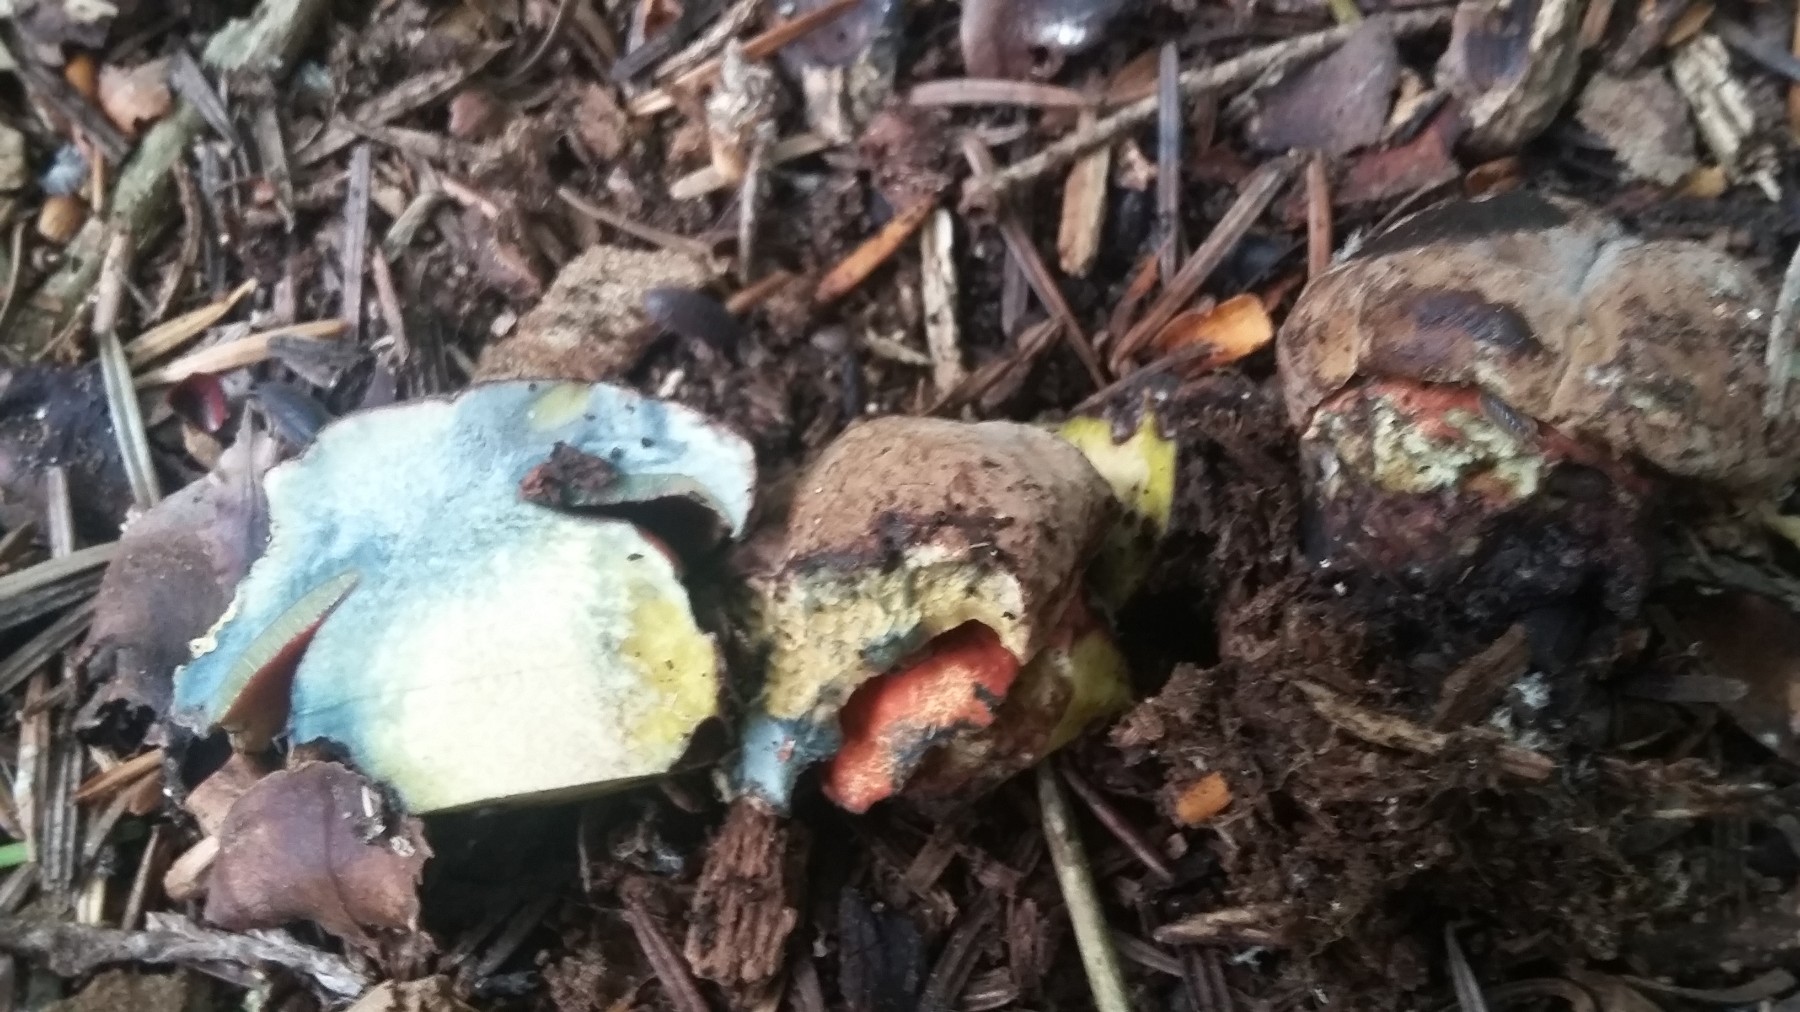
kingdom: Fungi
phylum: Basidiomycota
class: Agaricomycetes
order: Boletales
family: Boletaceae
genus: Neoboletus
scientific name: Neoboletus erythropus
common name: punktstokket indigorørhat
